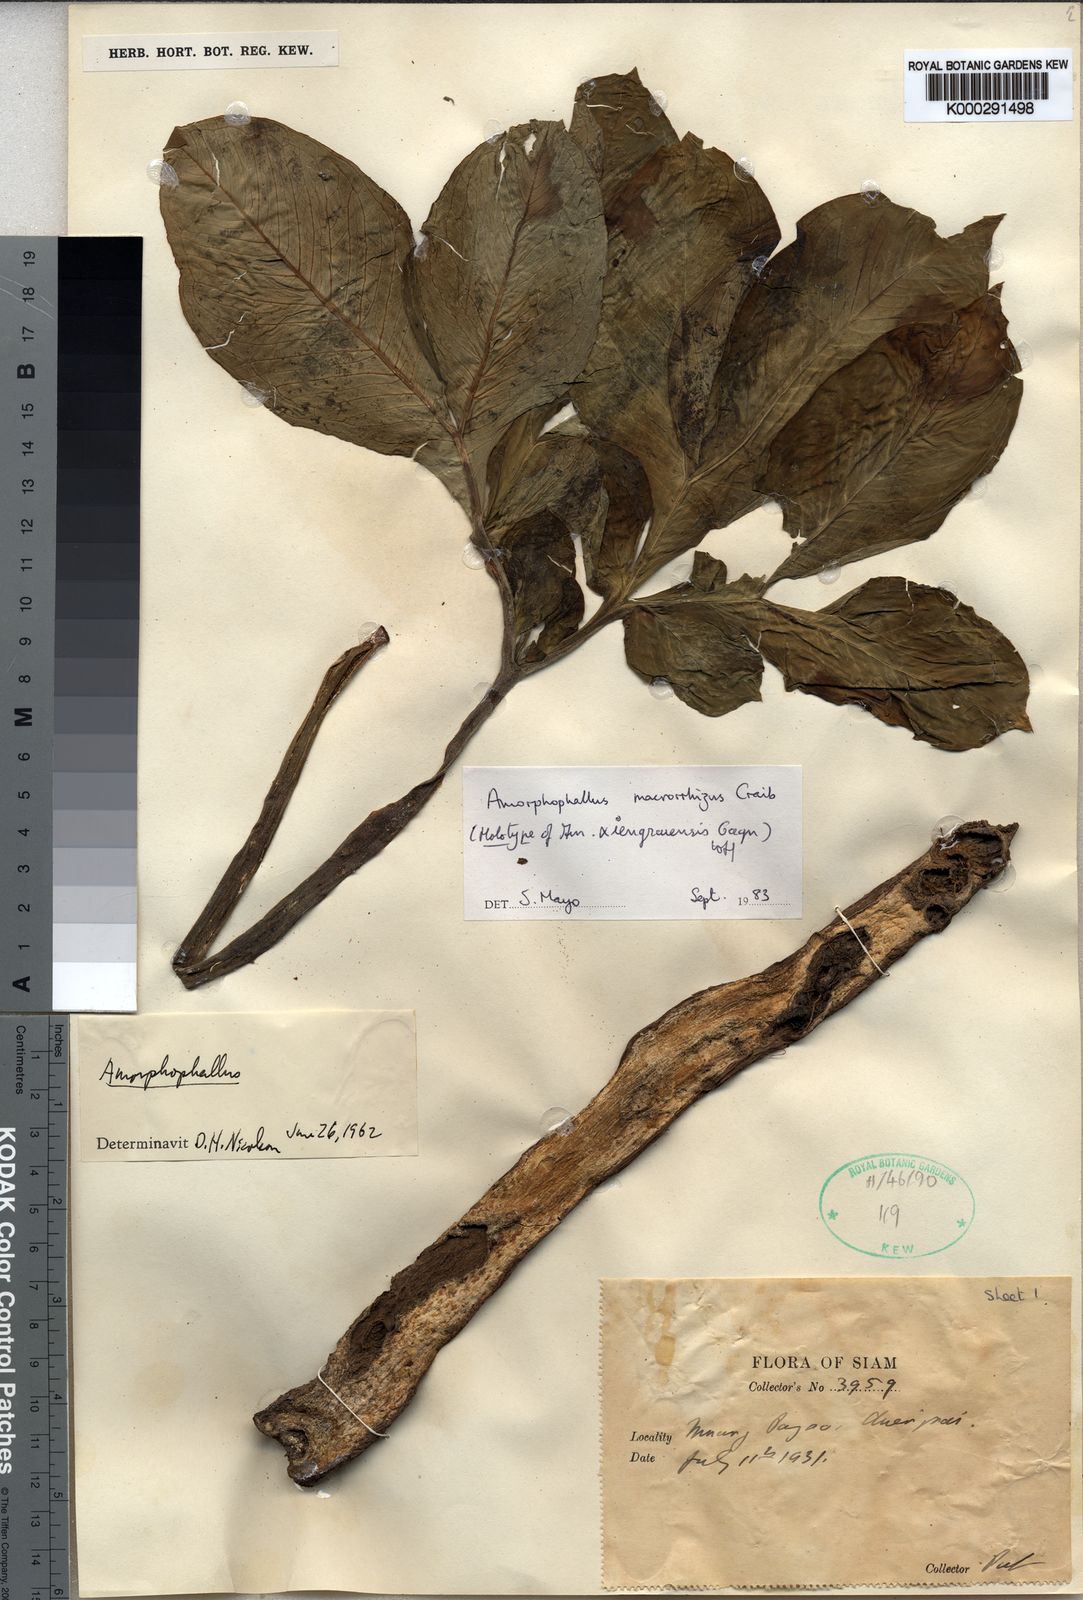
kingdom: Plantae
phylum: Tracheophyta
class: Liliopsida
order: Alismatales
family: Araceae
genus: Amorphophallus
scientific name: Amorphophallus macrorhizus
